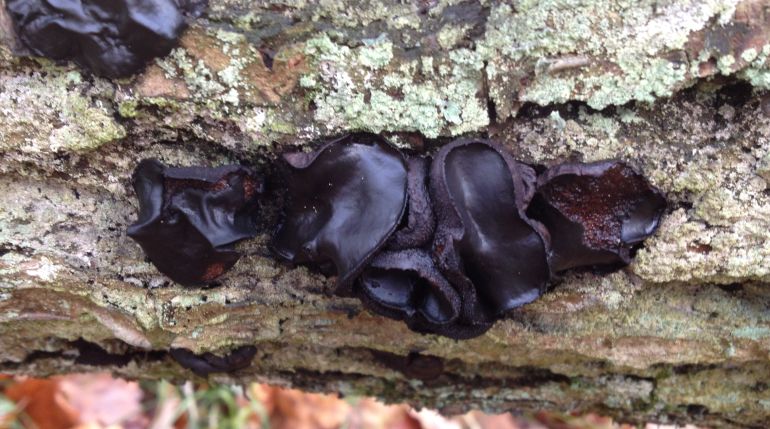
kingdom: Fungi
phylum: Ascomycota
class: Leotiomycetes
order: Phacidiales
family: Phacidiaceae
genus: Bulgaria
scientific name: Bulgaria inquinans
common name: afsmittende topsvamp
